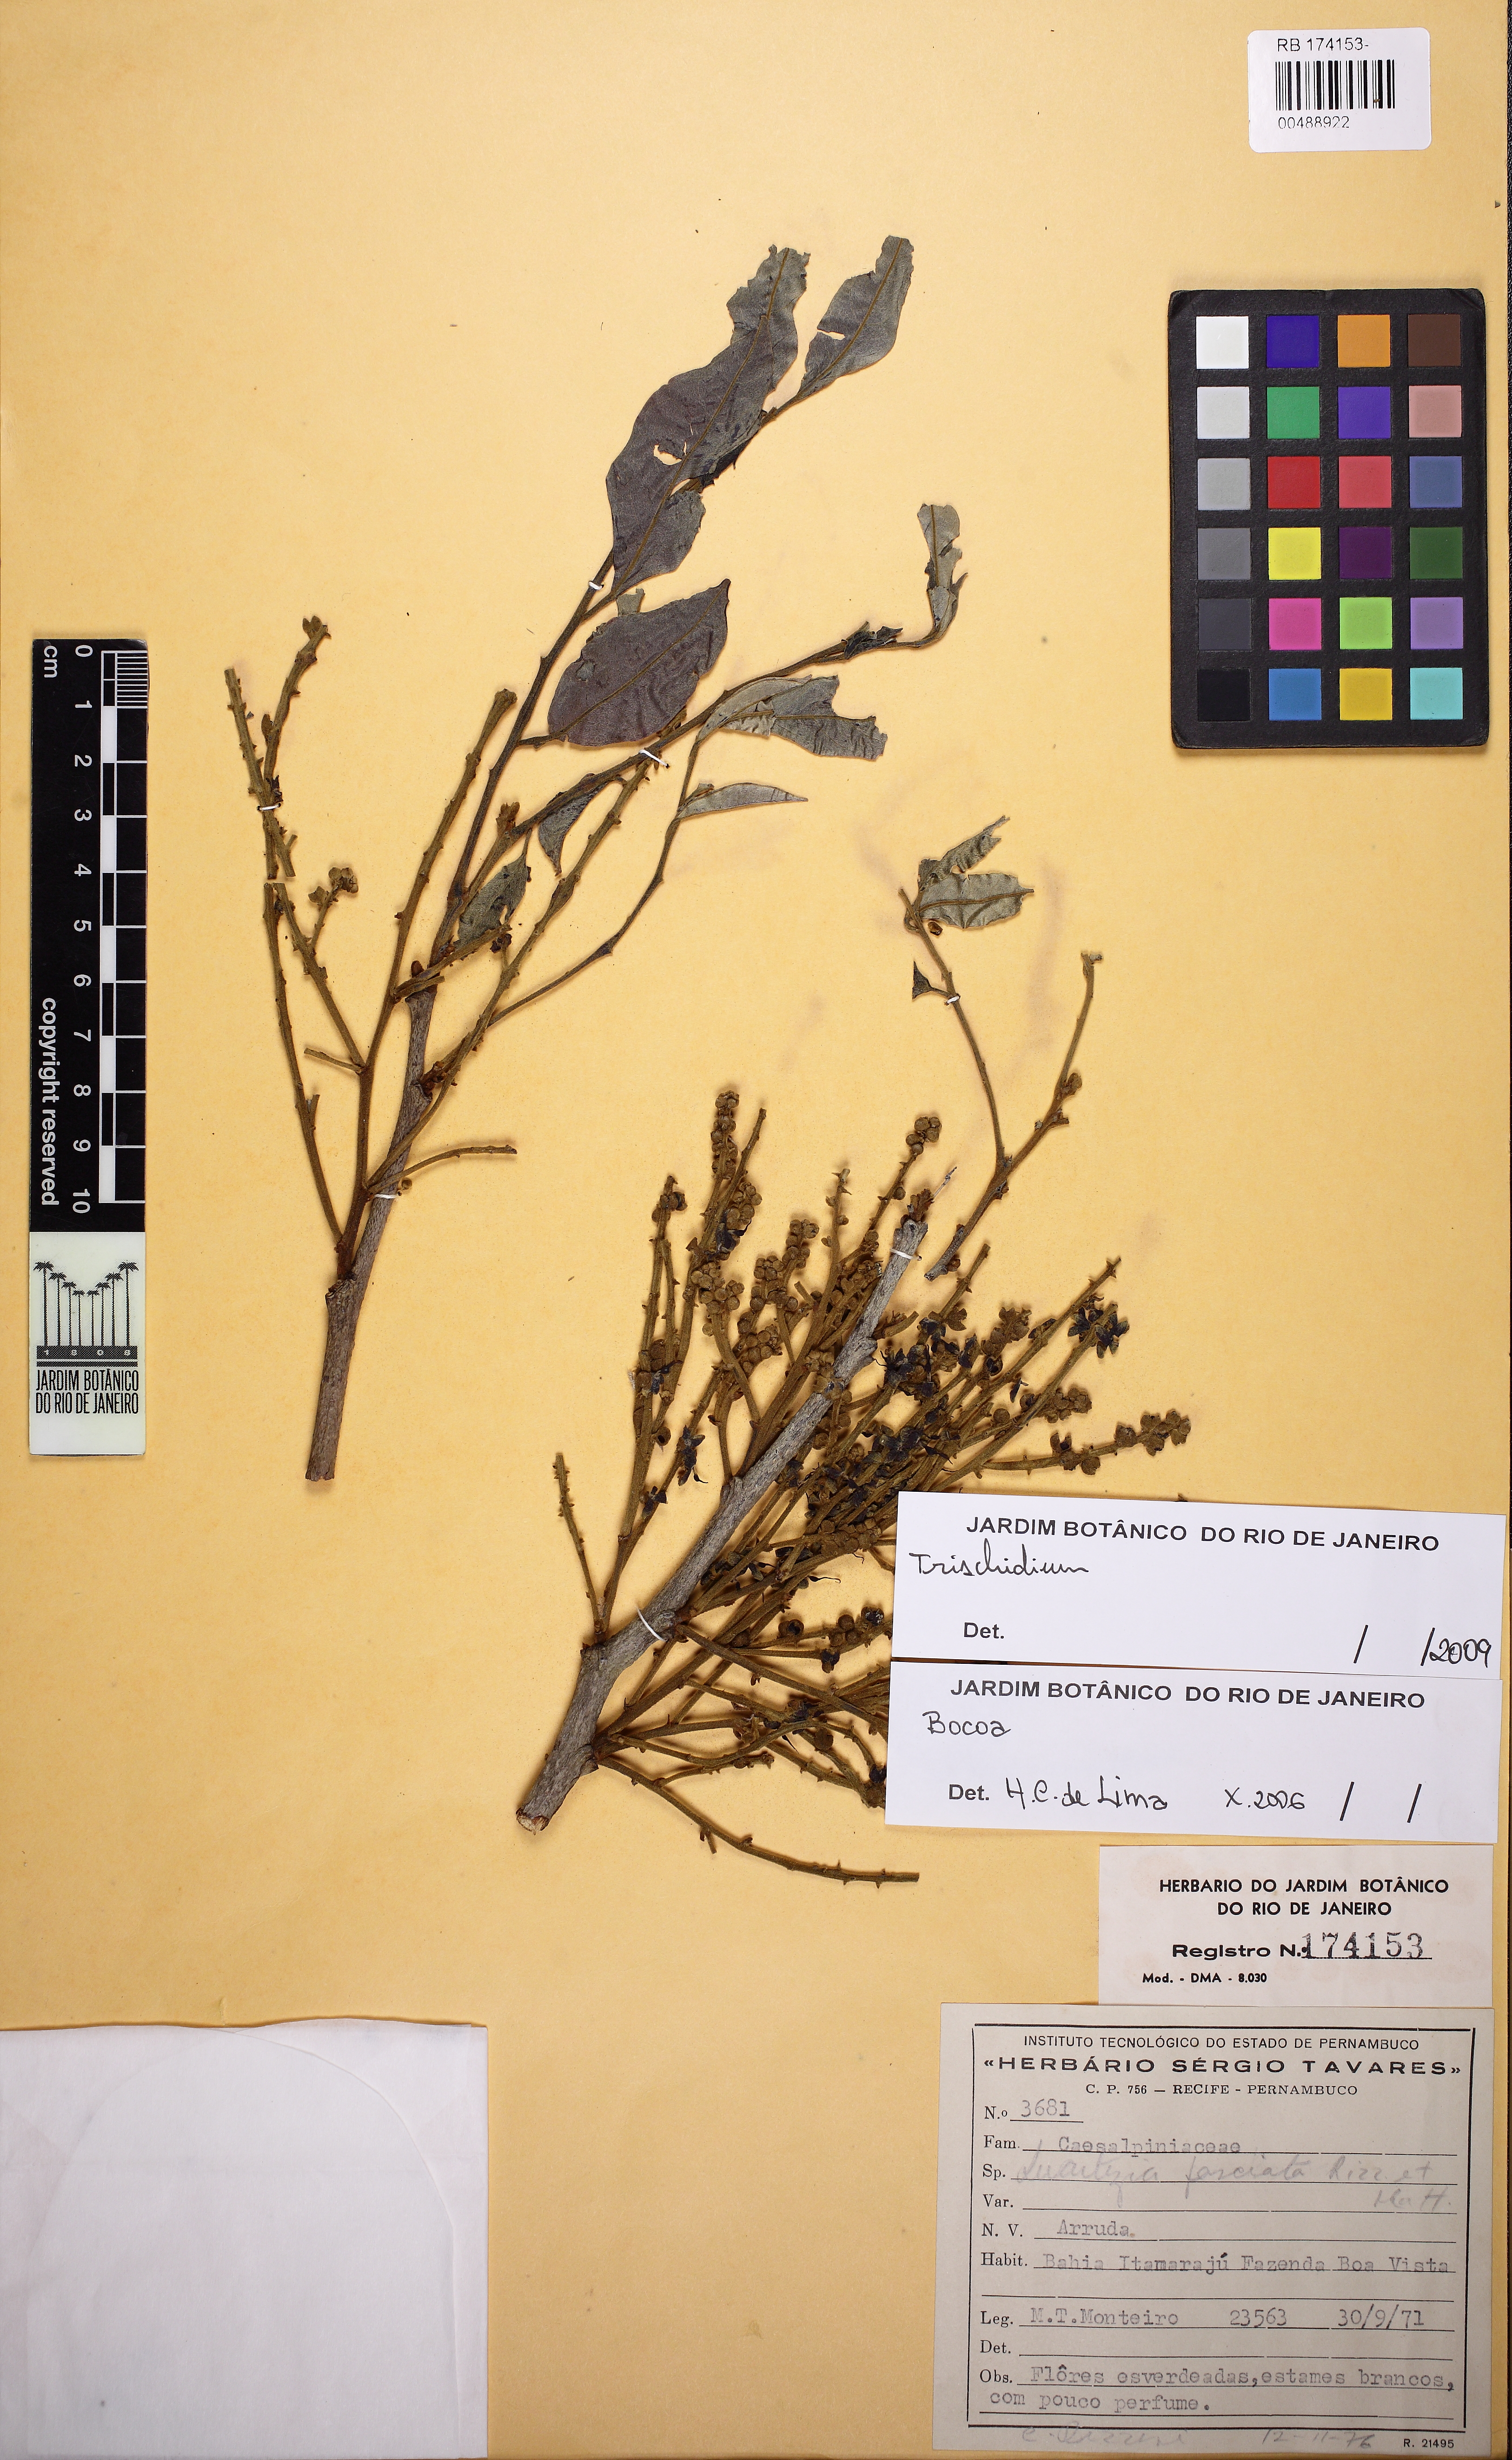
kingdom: Plantae
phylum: Tracheophyta
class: Magnoliopsida
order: Fabales
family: Fabaceae
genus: Trischidium
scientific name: Trischidium
